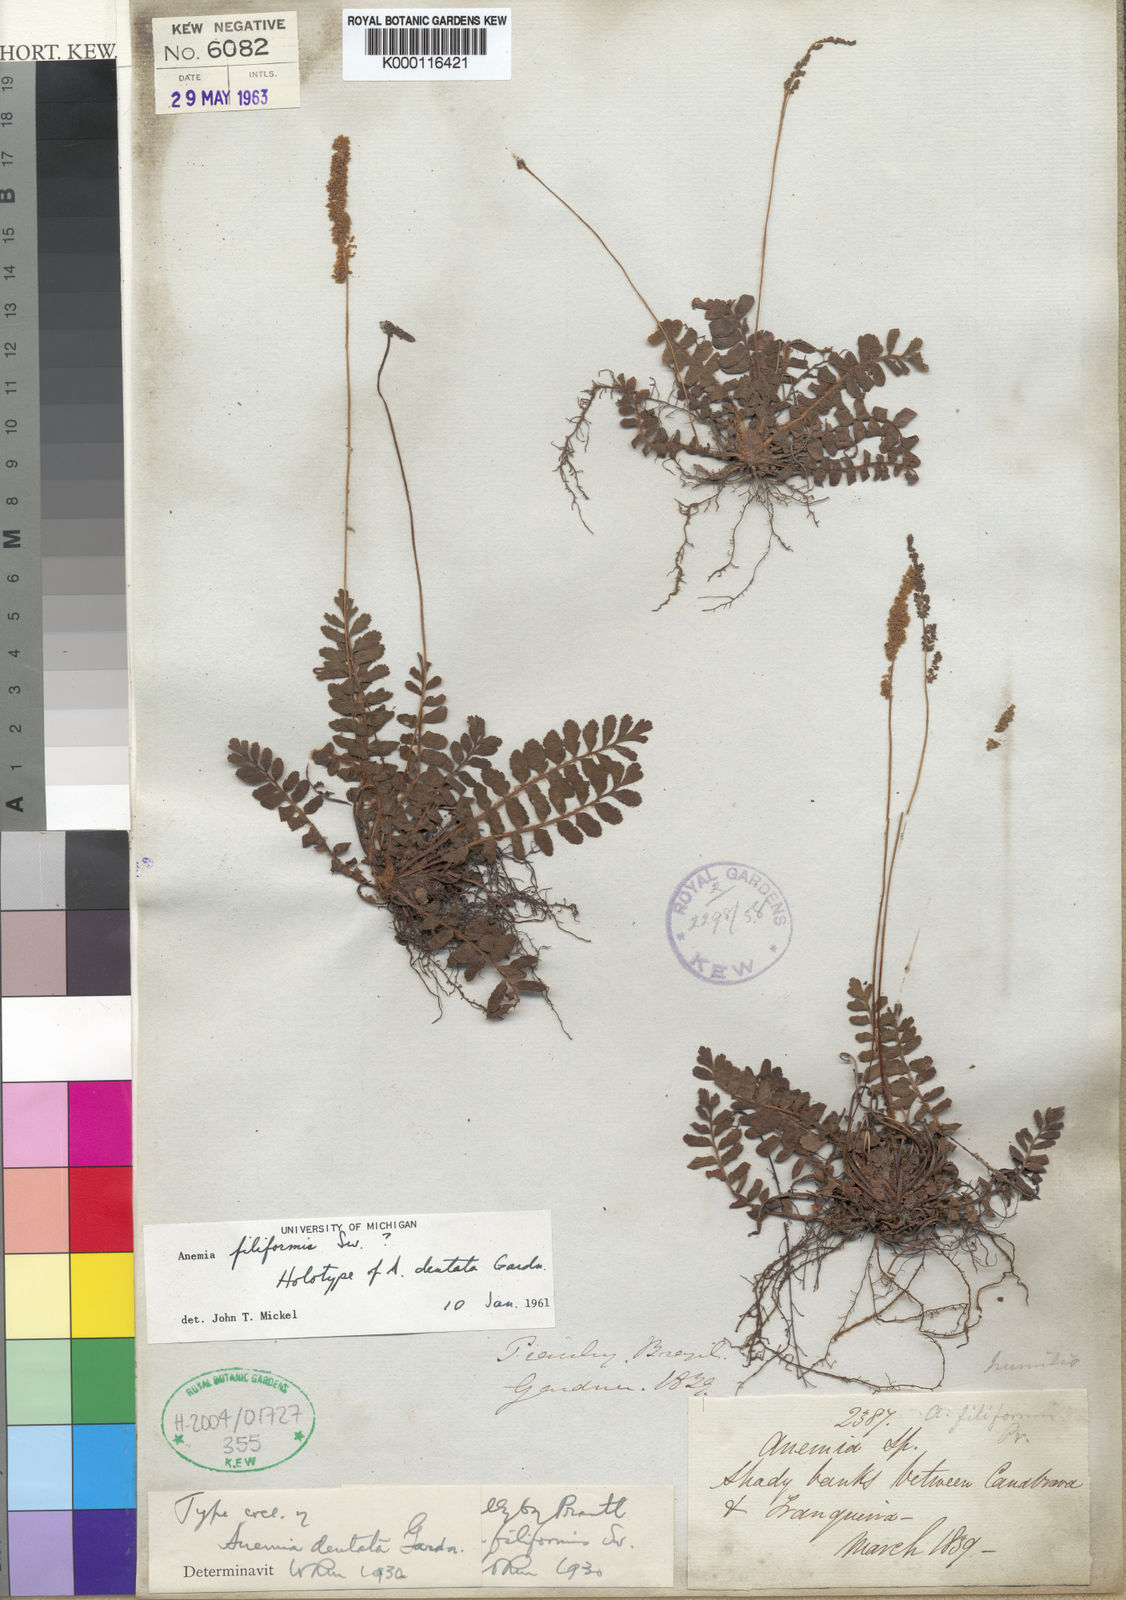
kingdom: Plantae
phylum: Tracheophyta
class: Polypodiopsida
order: Schizaeales
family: Anemiaceae
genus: Anemia
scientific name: Anemia dentata
